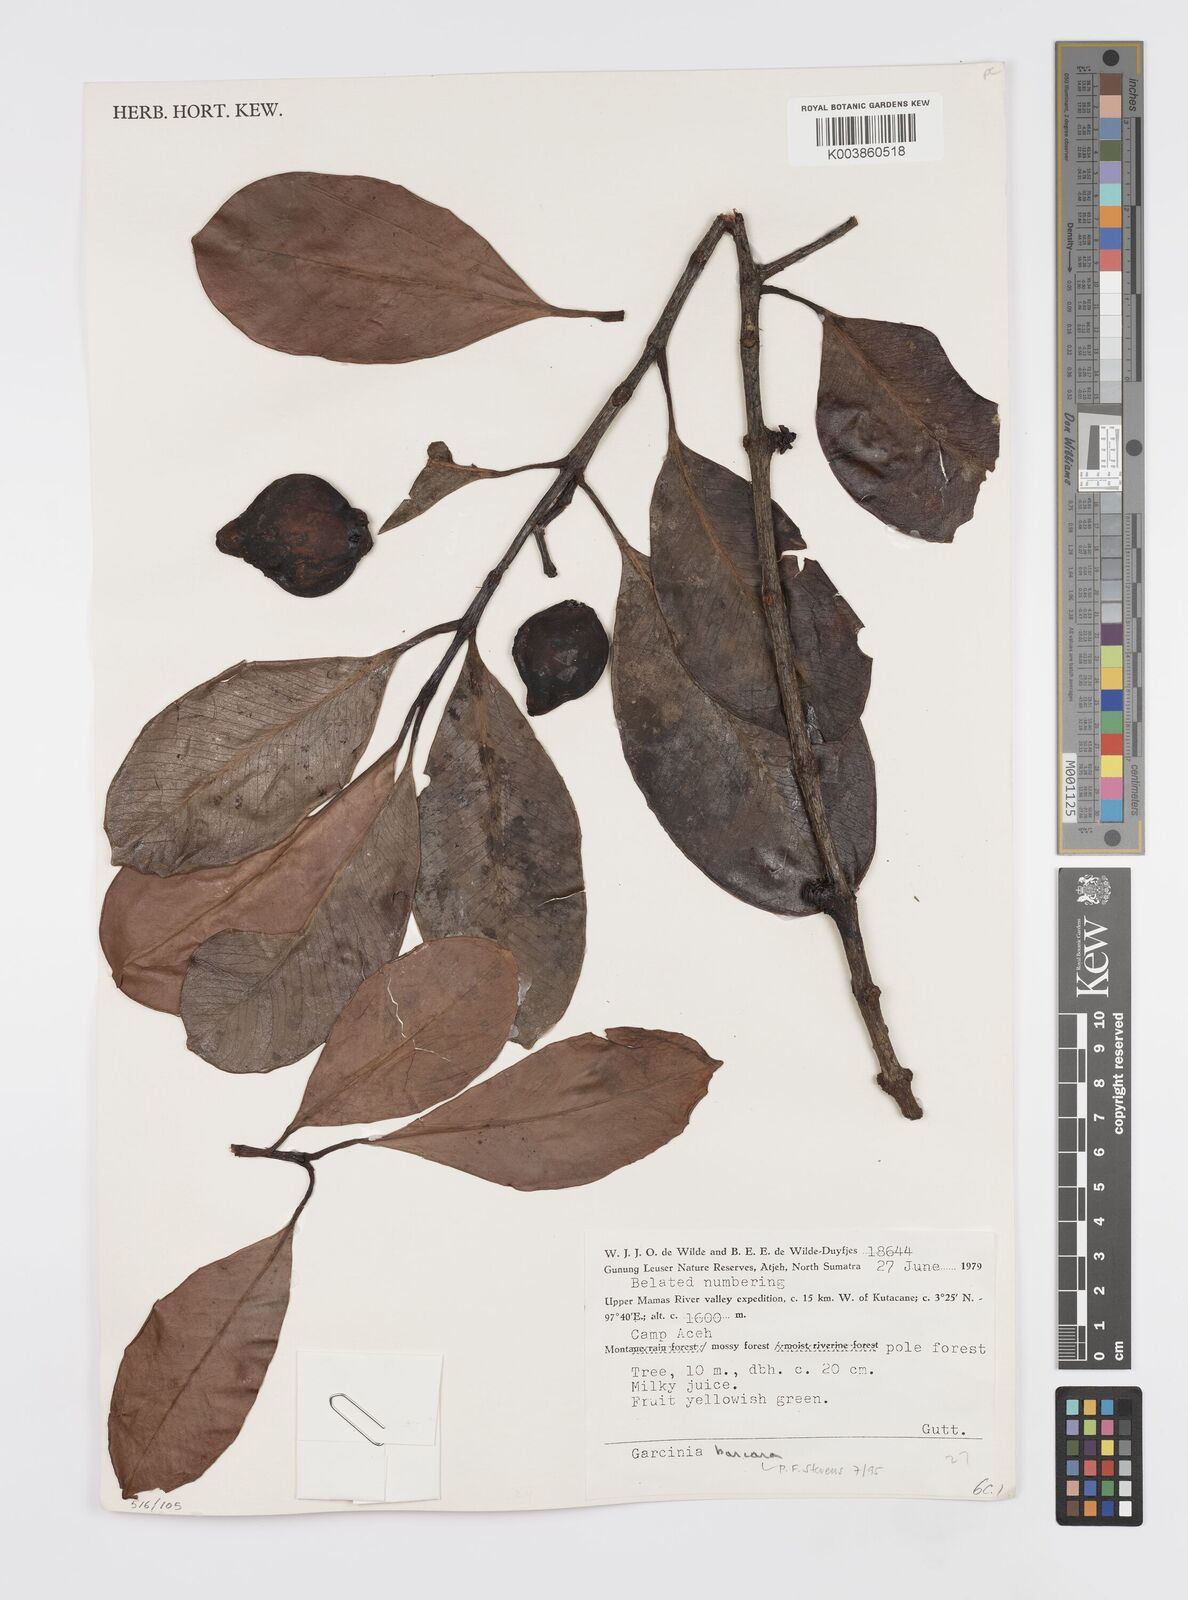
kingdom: Plantae
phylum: Tracheophyta
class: Magnoliopsida
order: Malpighiales
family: Clusiaceae
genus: Garcinia
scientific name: Garcinia bancana
